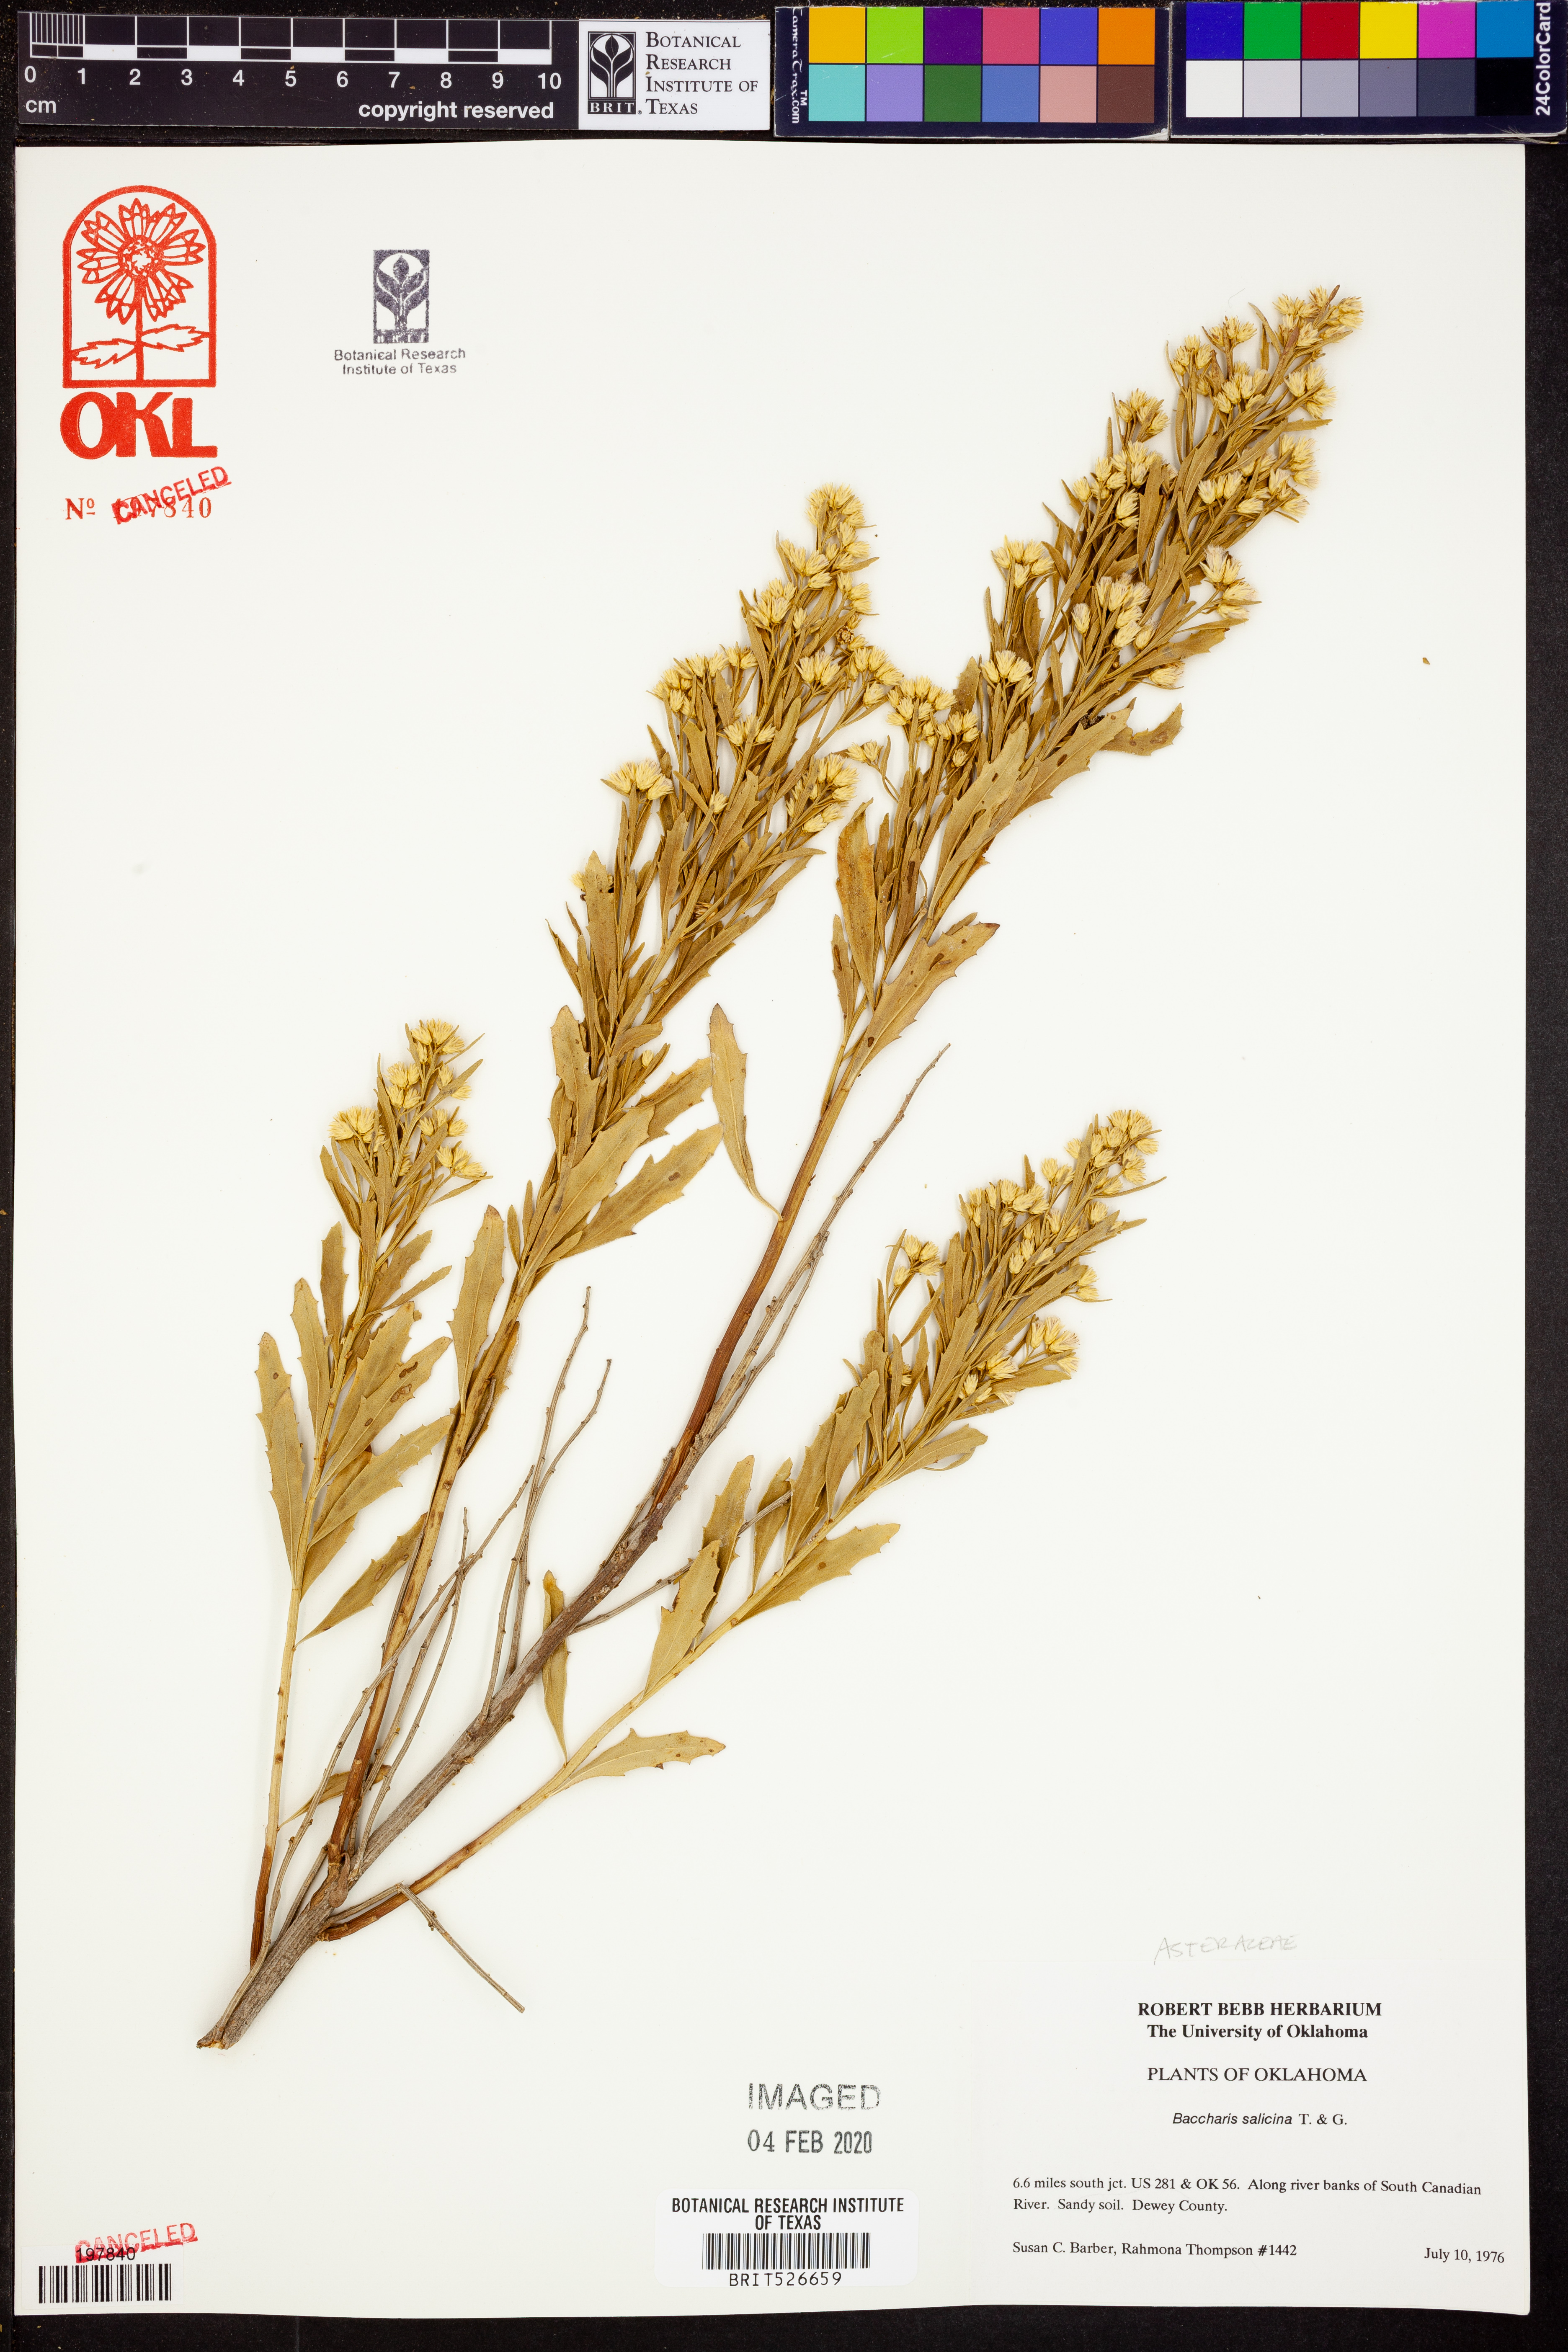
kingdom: Plantae
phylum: Tracheophyta
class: Magnoliopsida
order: Asterales
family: Asteraceae
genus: Baccharis
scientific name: Baccharis salicina
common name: Willow baccharis
